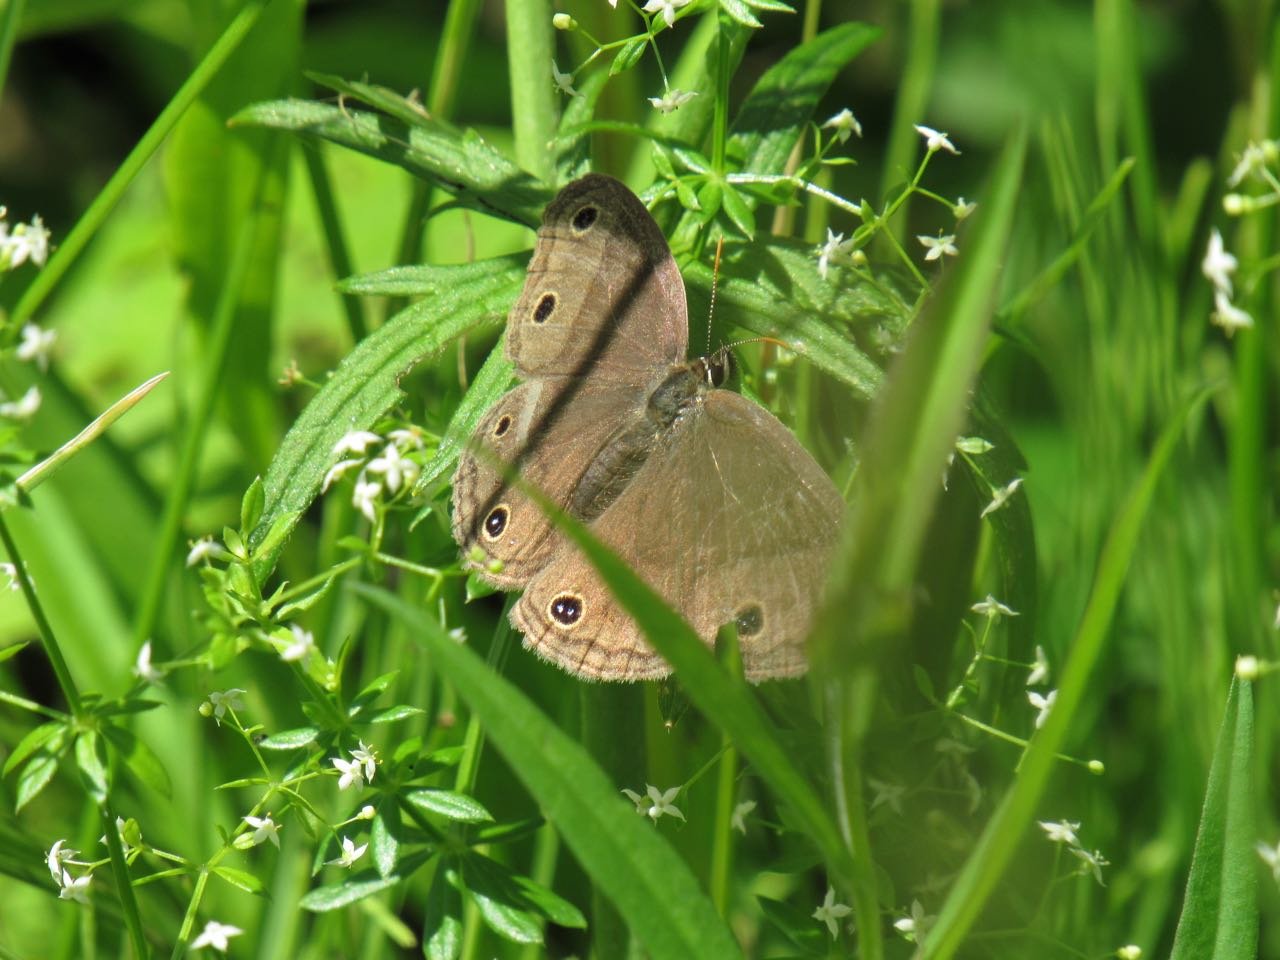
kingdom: Animalia
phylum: Arthropoda
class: Insecta
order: Lepidoptera
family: Nymphalidae
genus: Euptychia
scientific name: Euptychia cymela
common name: Little Wood Satyr
